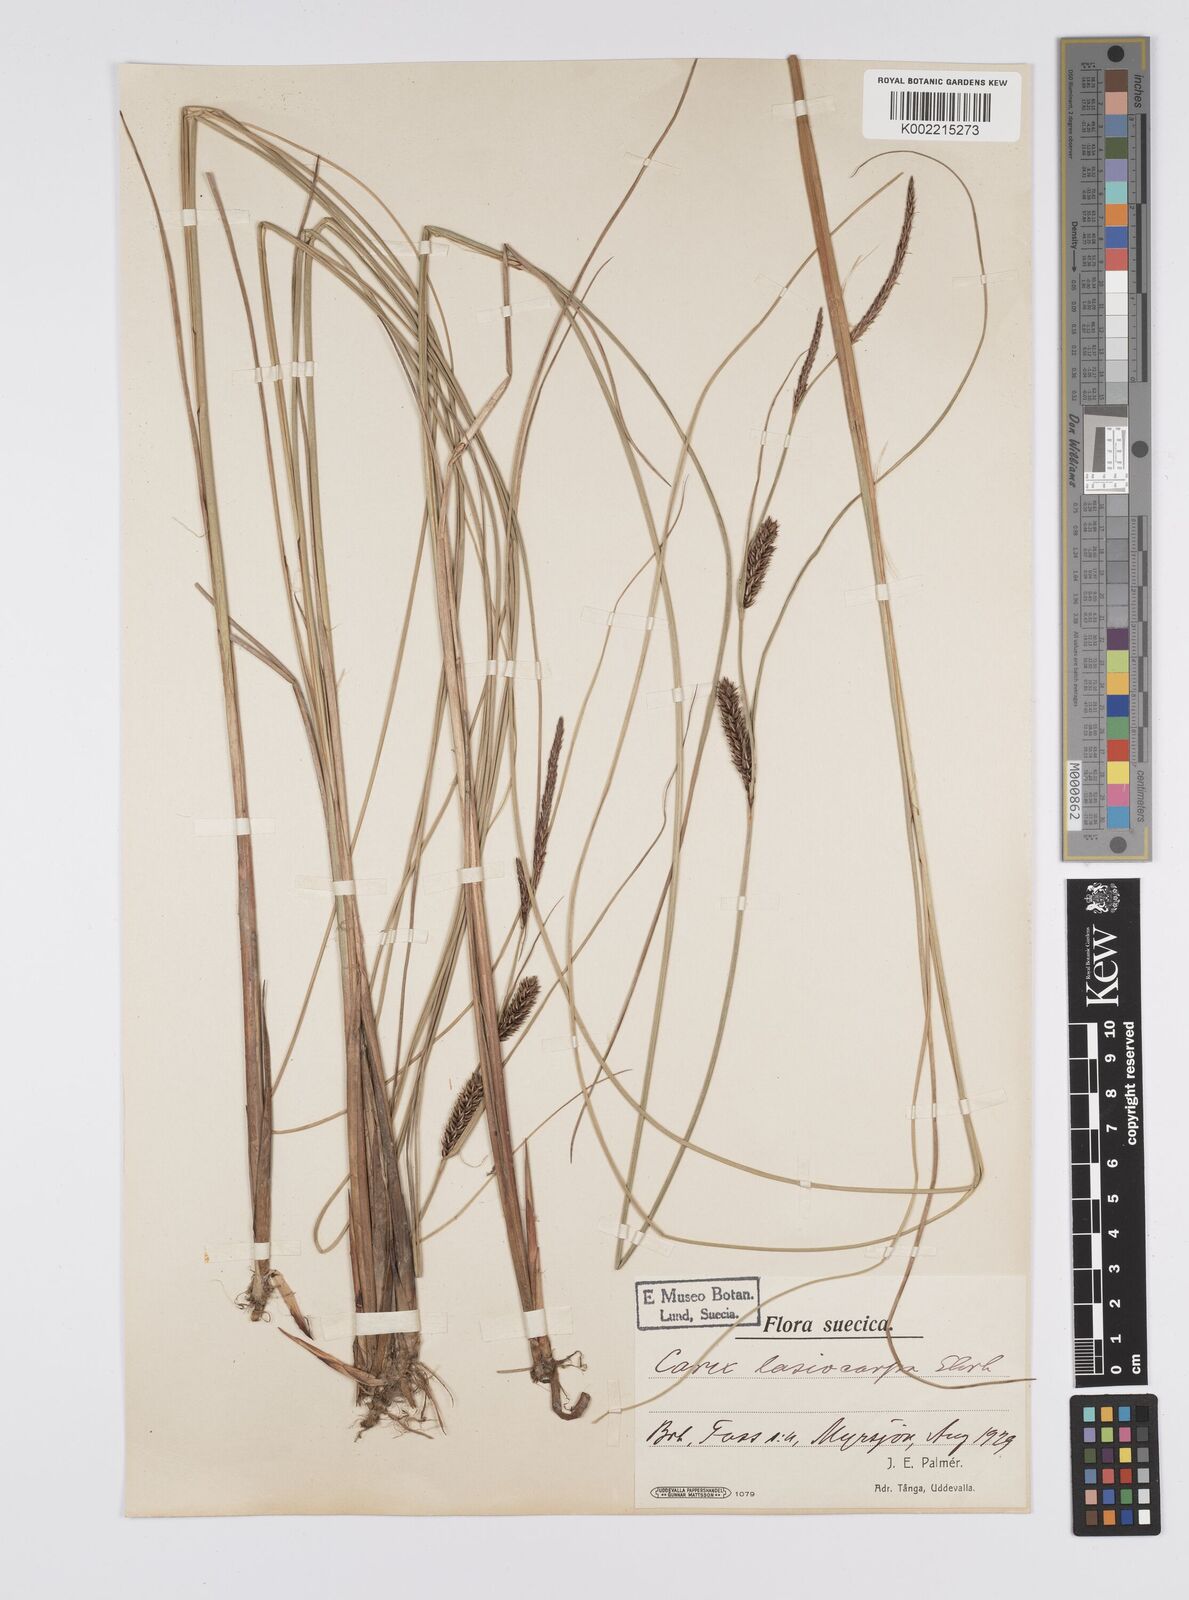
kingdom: Plantae
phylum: Tracheophyta
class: Liliopsida
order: Poales
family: Cyperaceae
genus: Carex
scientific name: Carex lasiocarpa
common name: Slender sedge
